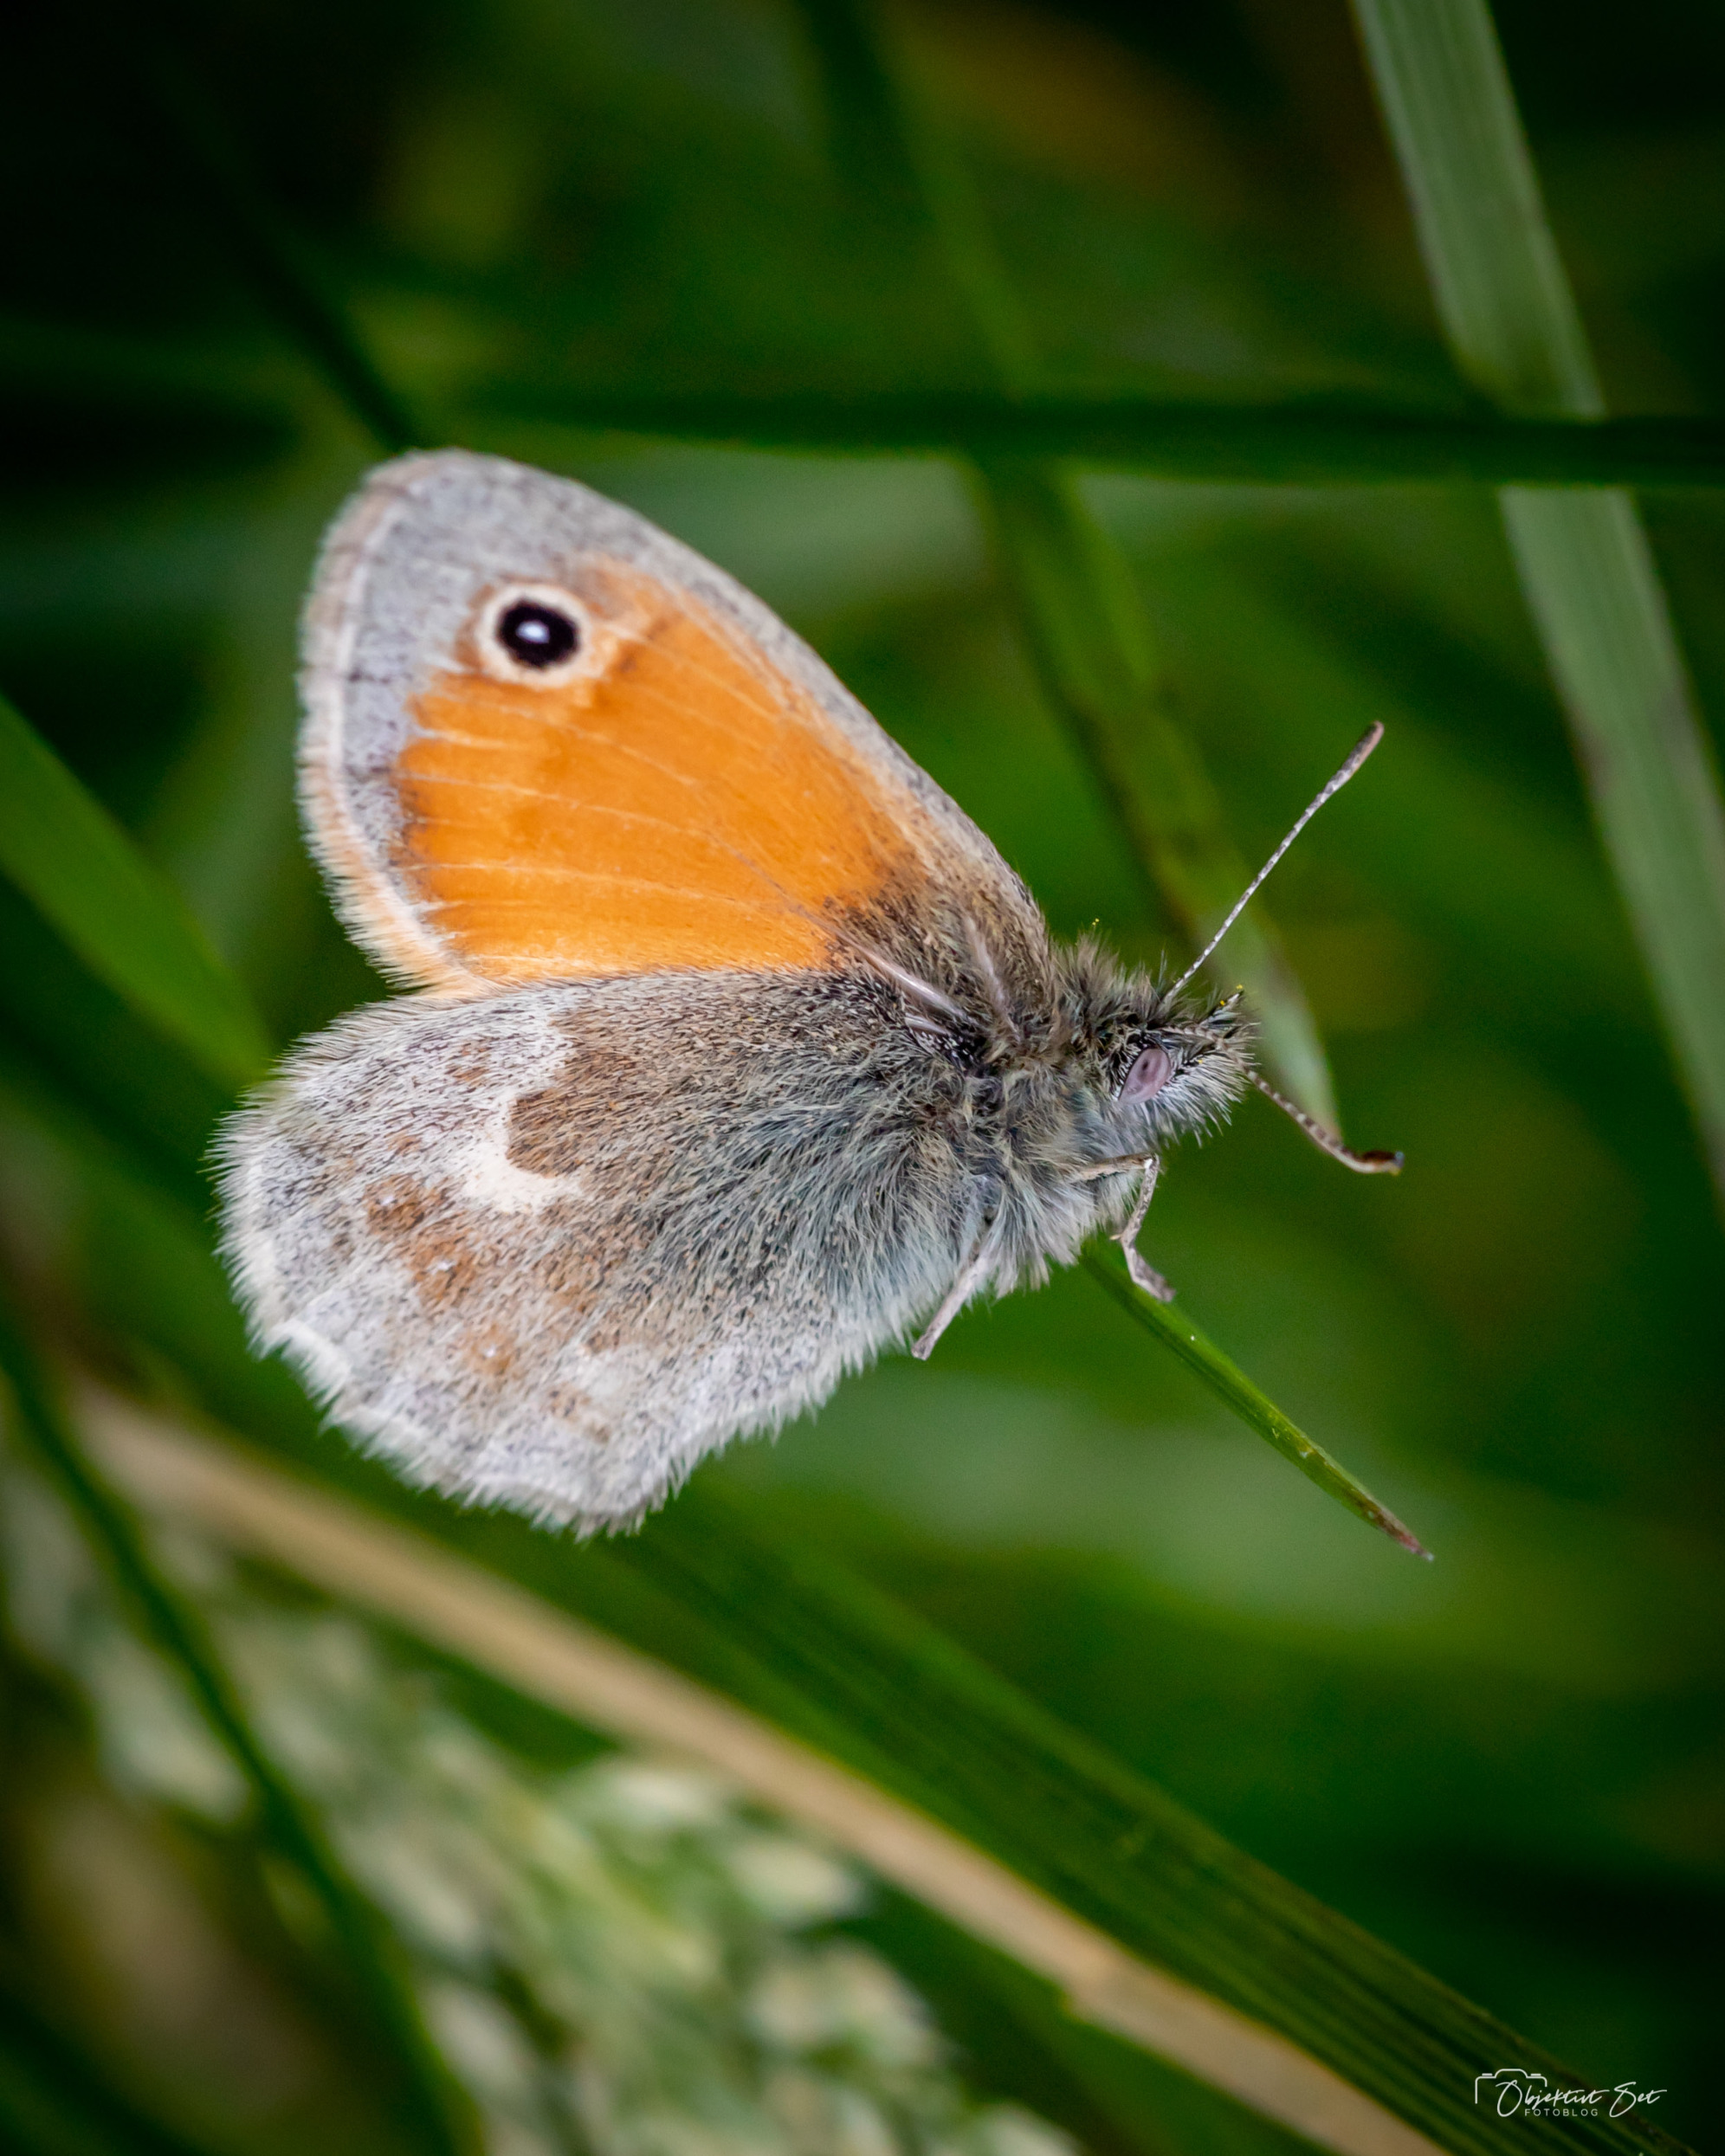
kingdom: Animalia
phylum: Arthropoda
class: Insecta
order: Lepidoptera
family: Nymphalidae
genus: Coenonympha
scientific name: Coenonympha pamphilus
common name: Okkergul randøje
